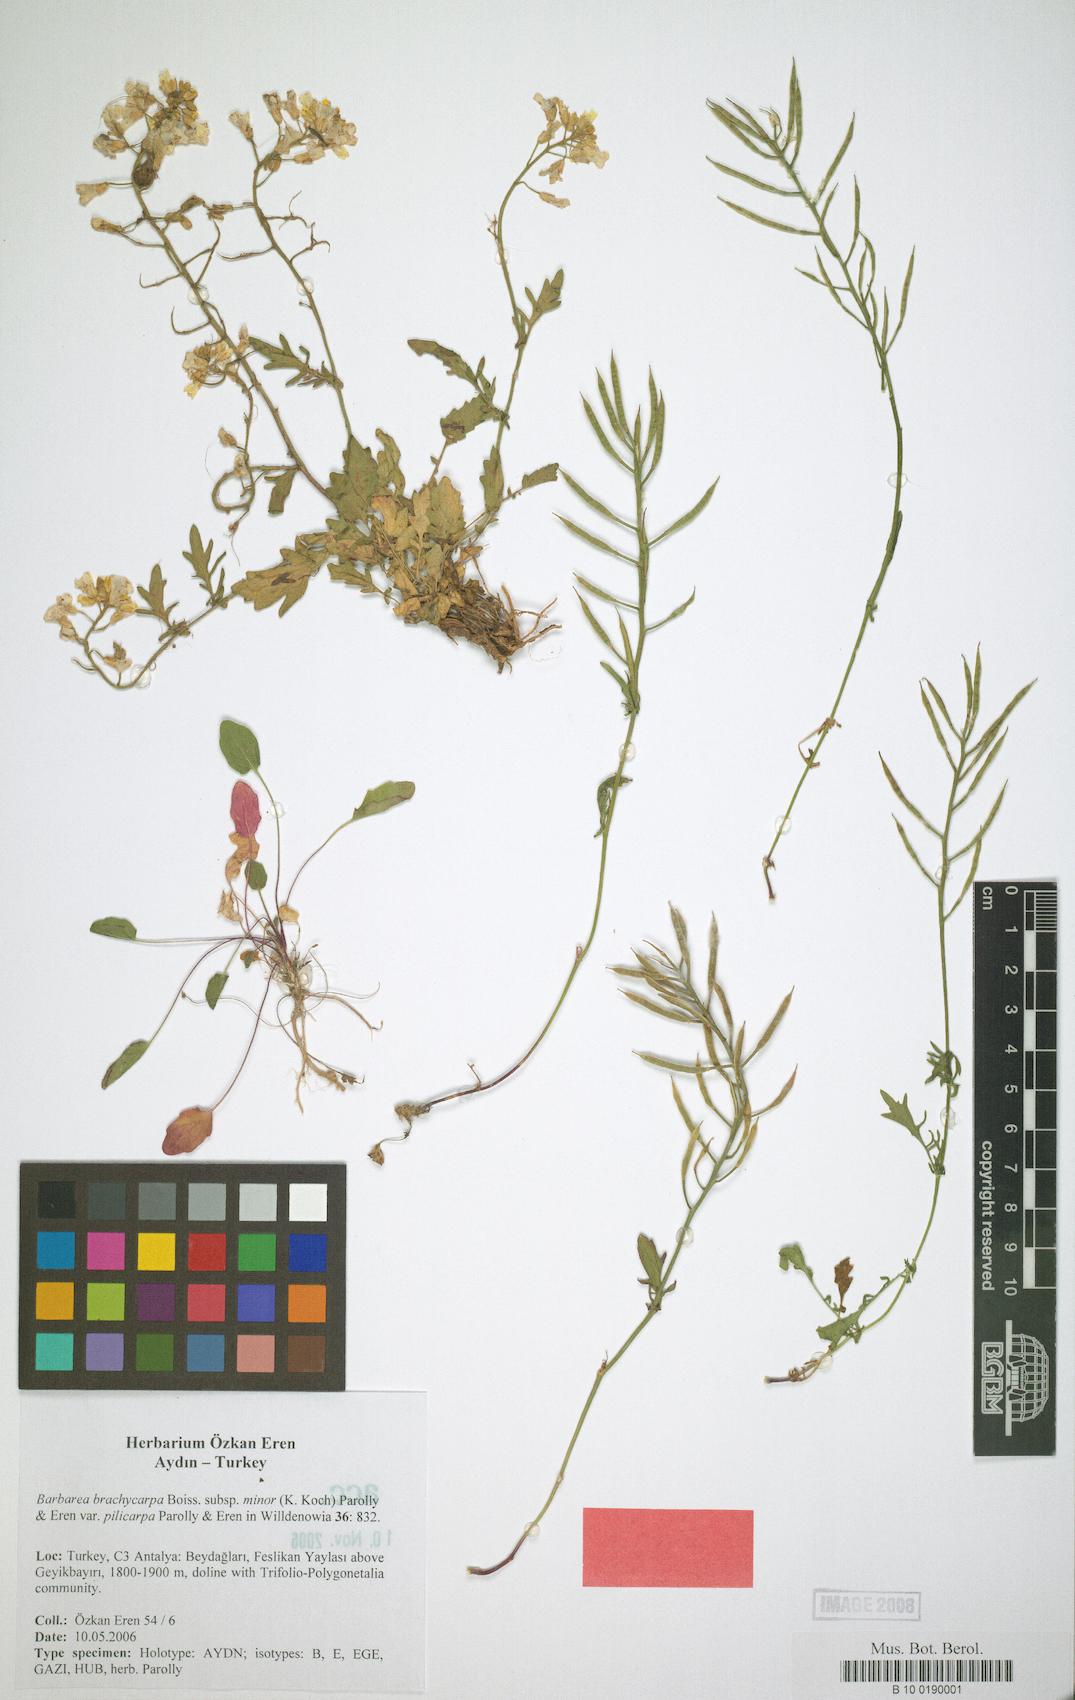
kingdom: Plantae
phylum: Tracheophyta
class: Magnoliopsida
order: Brassicales
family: Brassicaceae
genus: Barbarea
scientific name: Barbarea brachycarpa
